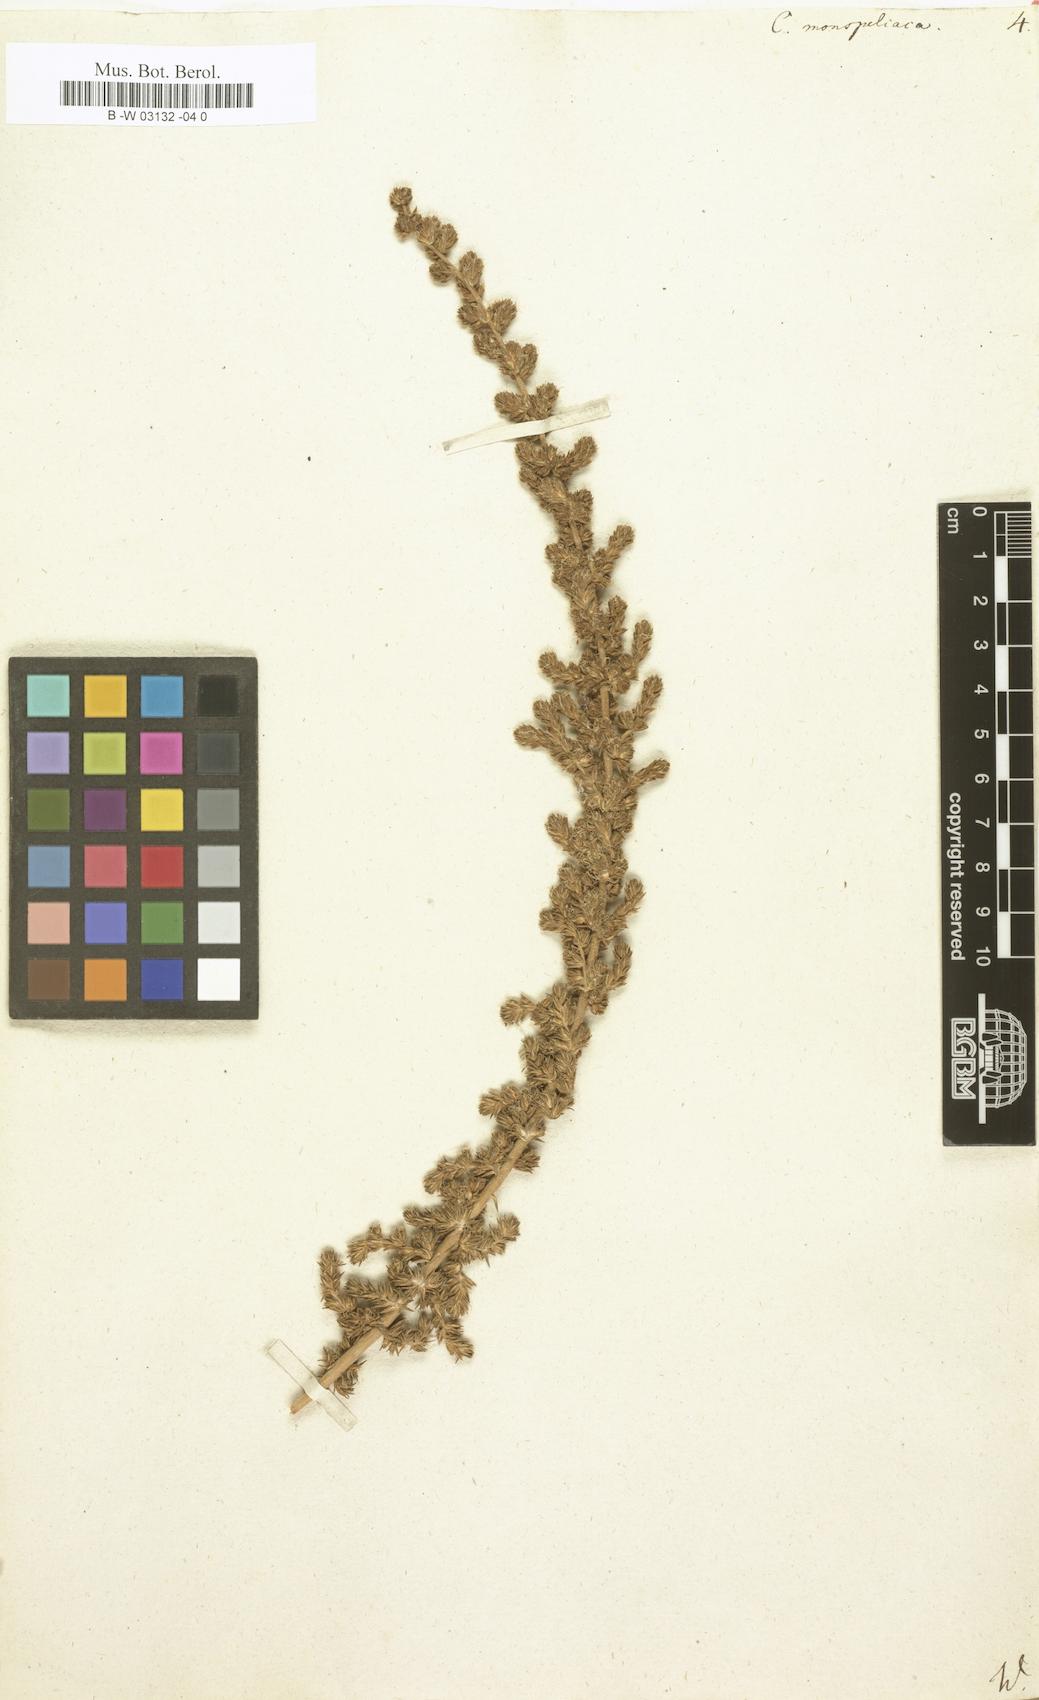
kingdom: Plantae
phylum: Tracheophyta
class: Magnoliopsida
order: Caryophyllales
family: Amaranthaceae
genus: Camphorosma
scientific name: Camphorosma monspeliaca
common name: Camphorfume
